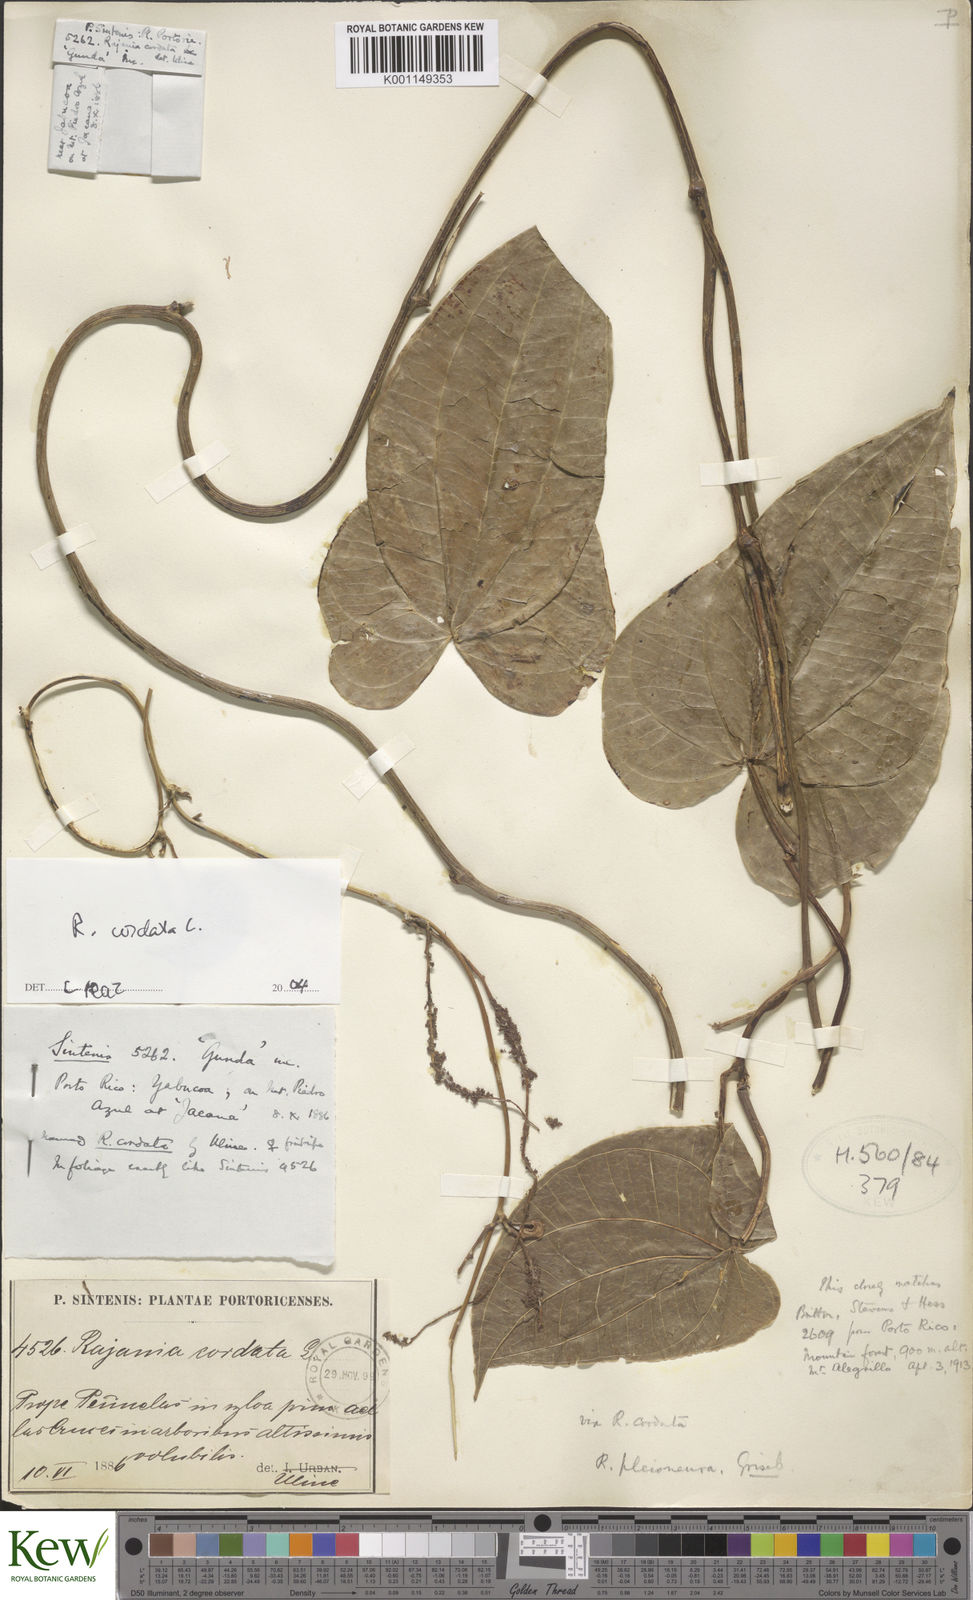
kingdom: Plantae
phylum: Tracheophyta
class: Liliopsida
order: Dioscoreales
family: Dioscoreaceae
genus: Dioscorea
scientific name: Dioscorea
